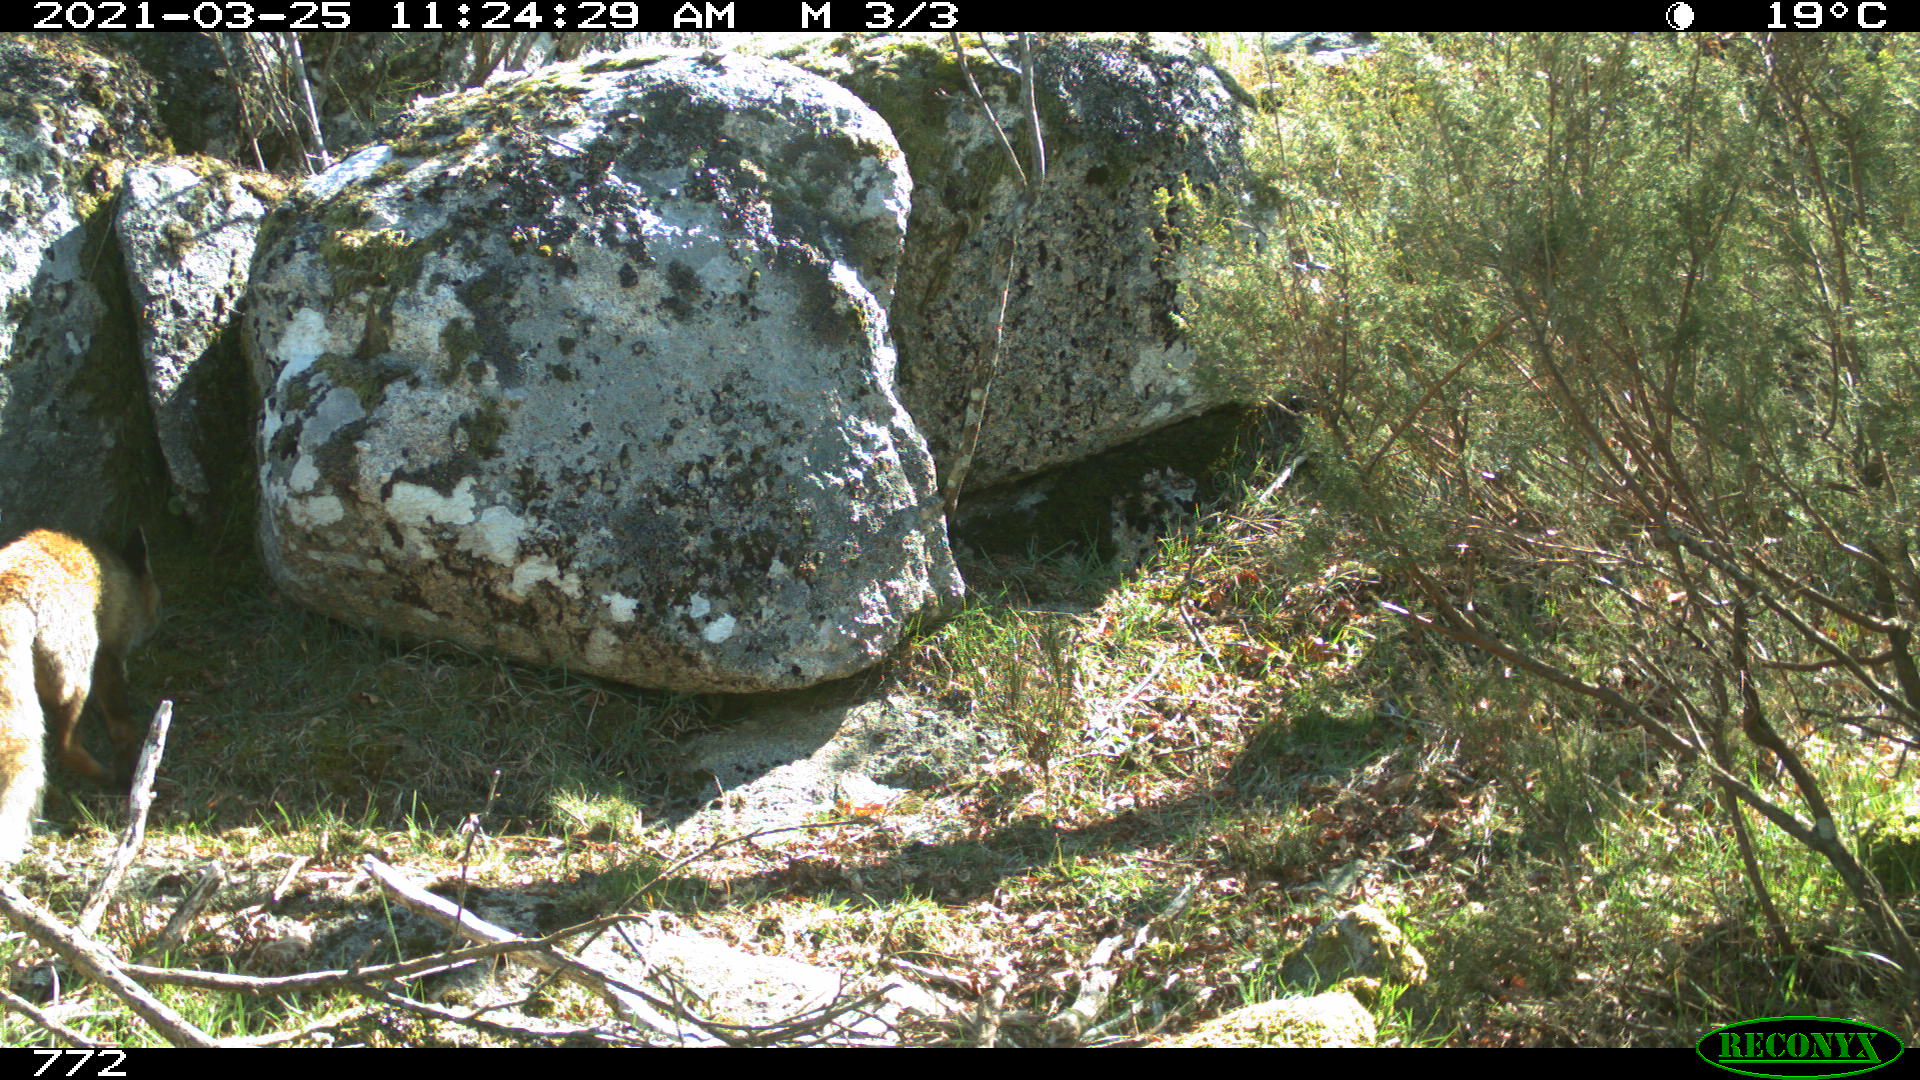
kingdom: Animalia
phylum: Chordata
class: Mammalia
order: Carnivora
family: Canidae
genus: Vulpes
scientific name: Vulpes vulpes
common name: Red fox
